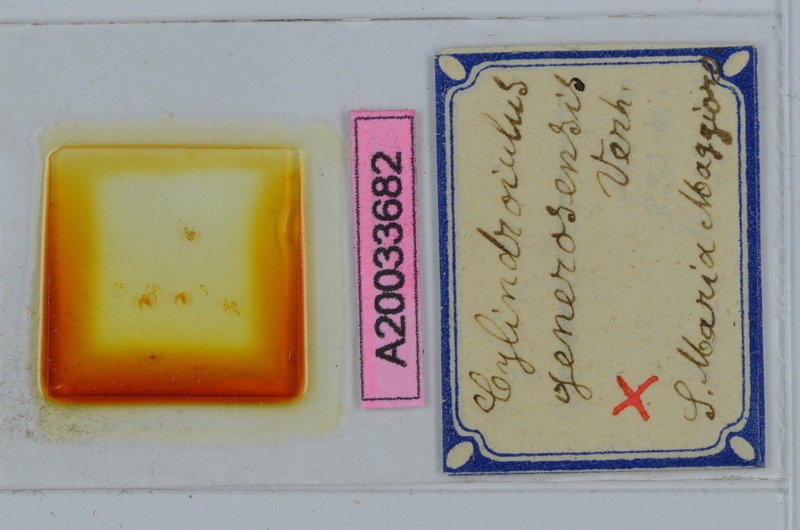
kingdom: Animalia
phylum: Arthropoda
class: Diplopoda
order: Julida
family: Julidae
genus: Cylindroiulus
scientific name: Cylindroiulus generosensis
